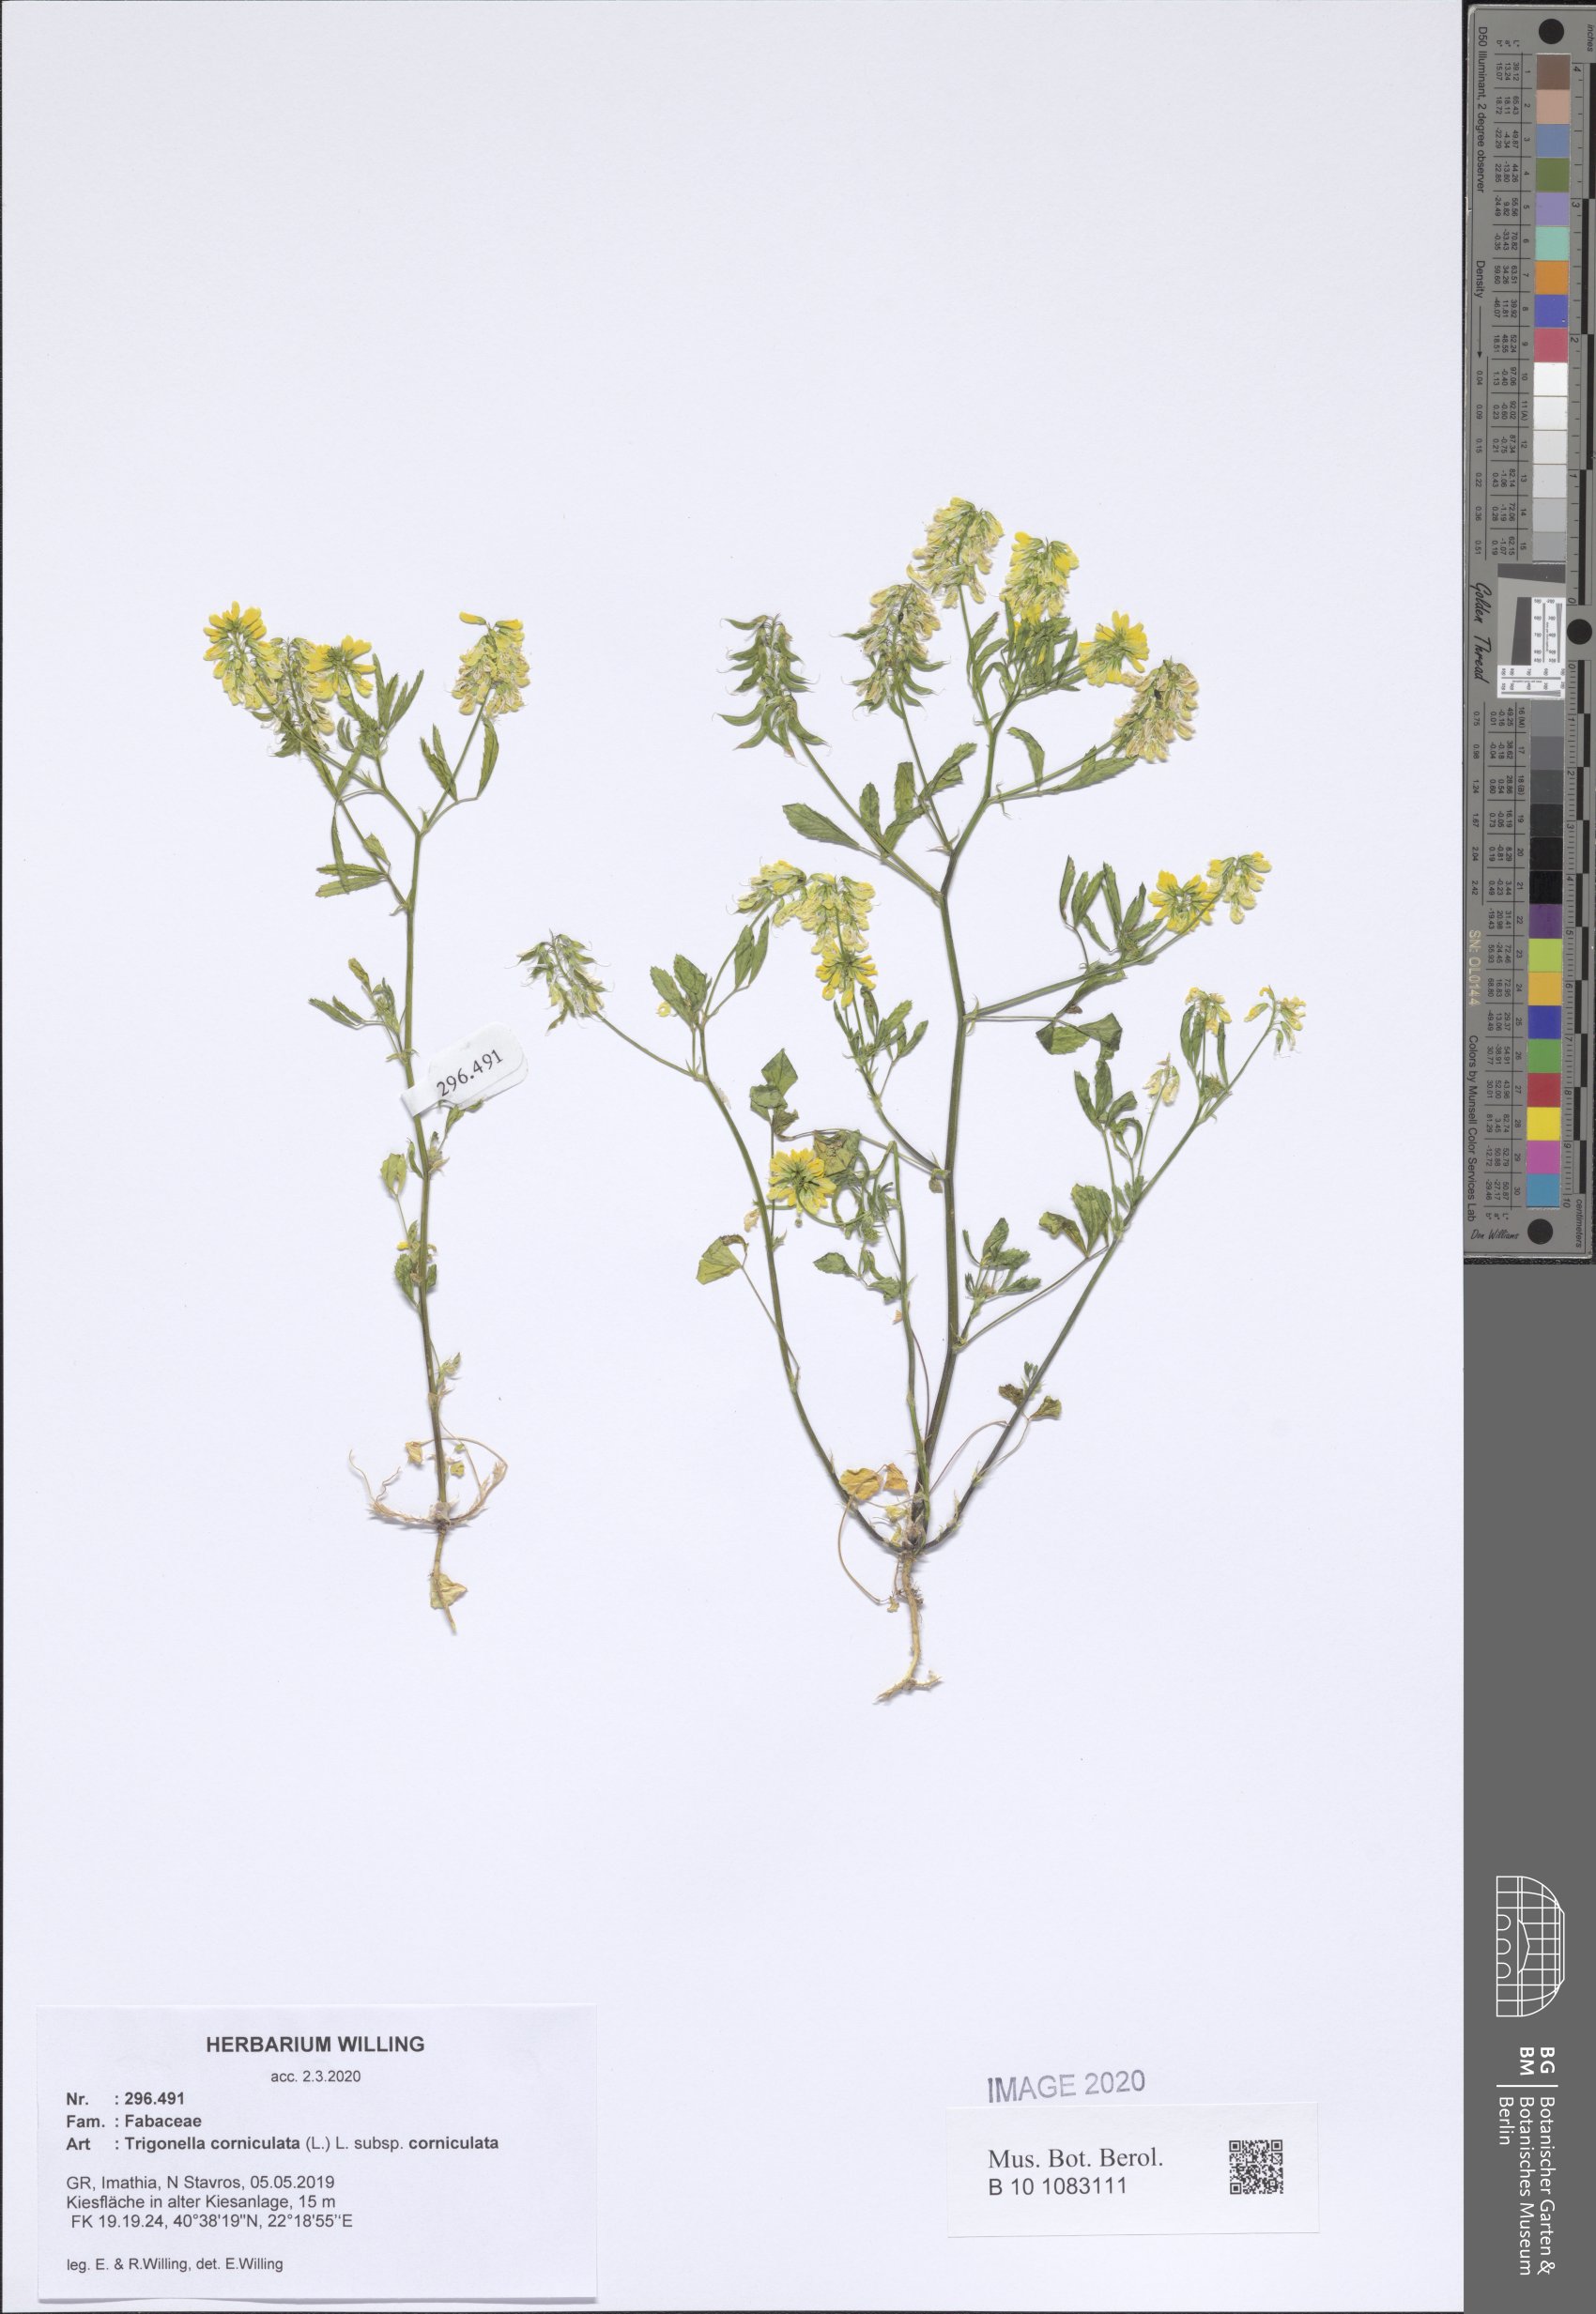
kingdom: Plantae
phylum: Tracheophyta
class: Magnoliopsida
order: Fabales
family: Fabaceae
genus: Trigonella
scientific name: Trigonella corniculata
